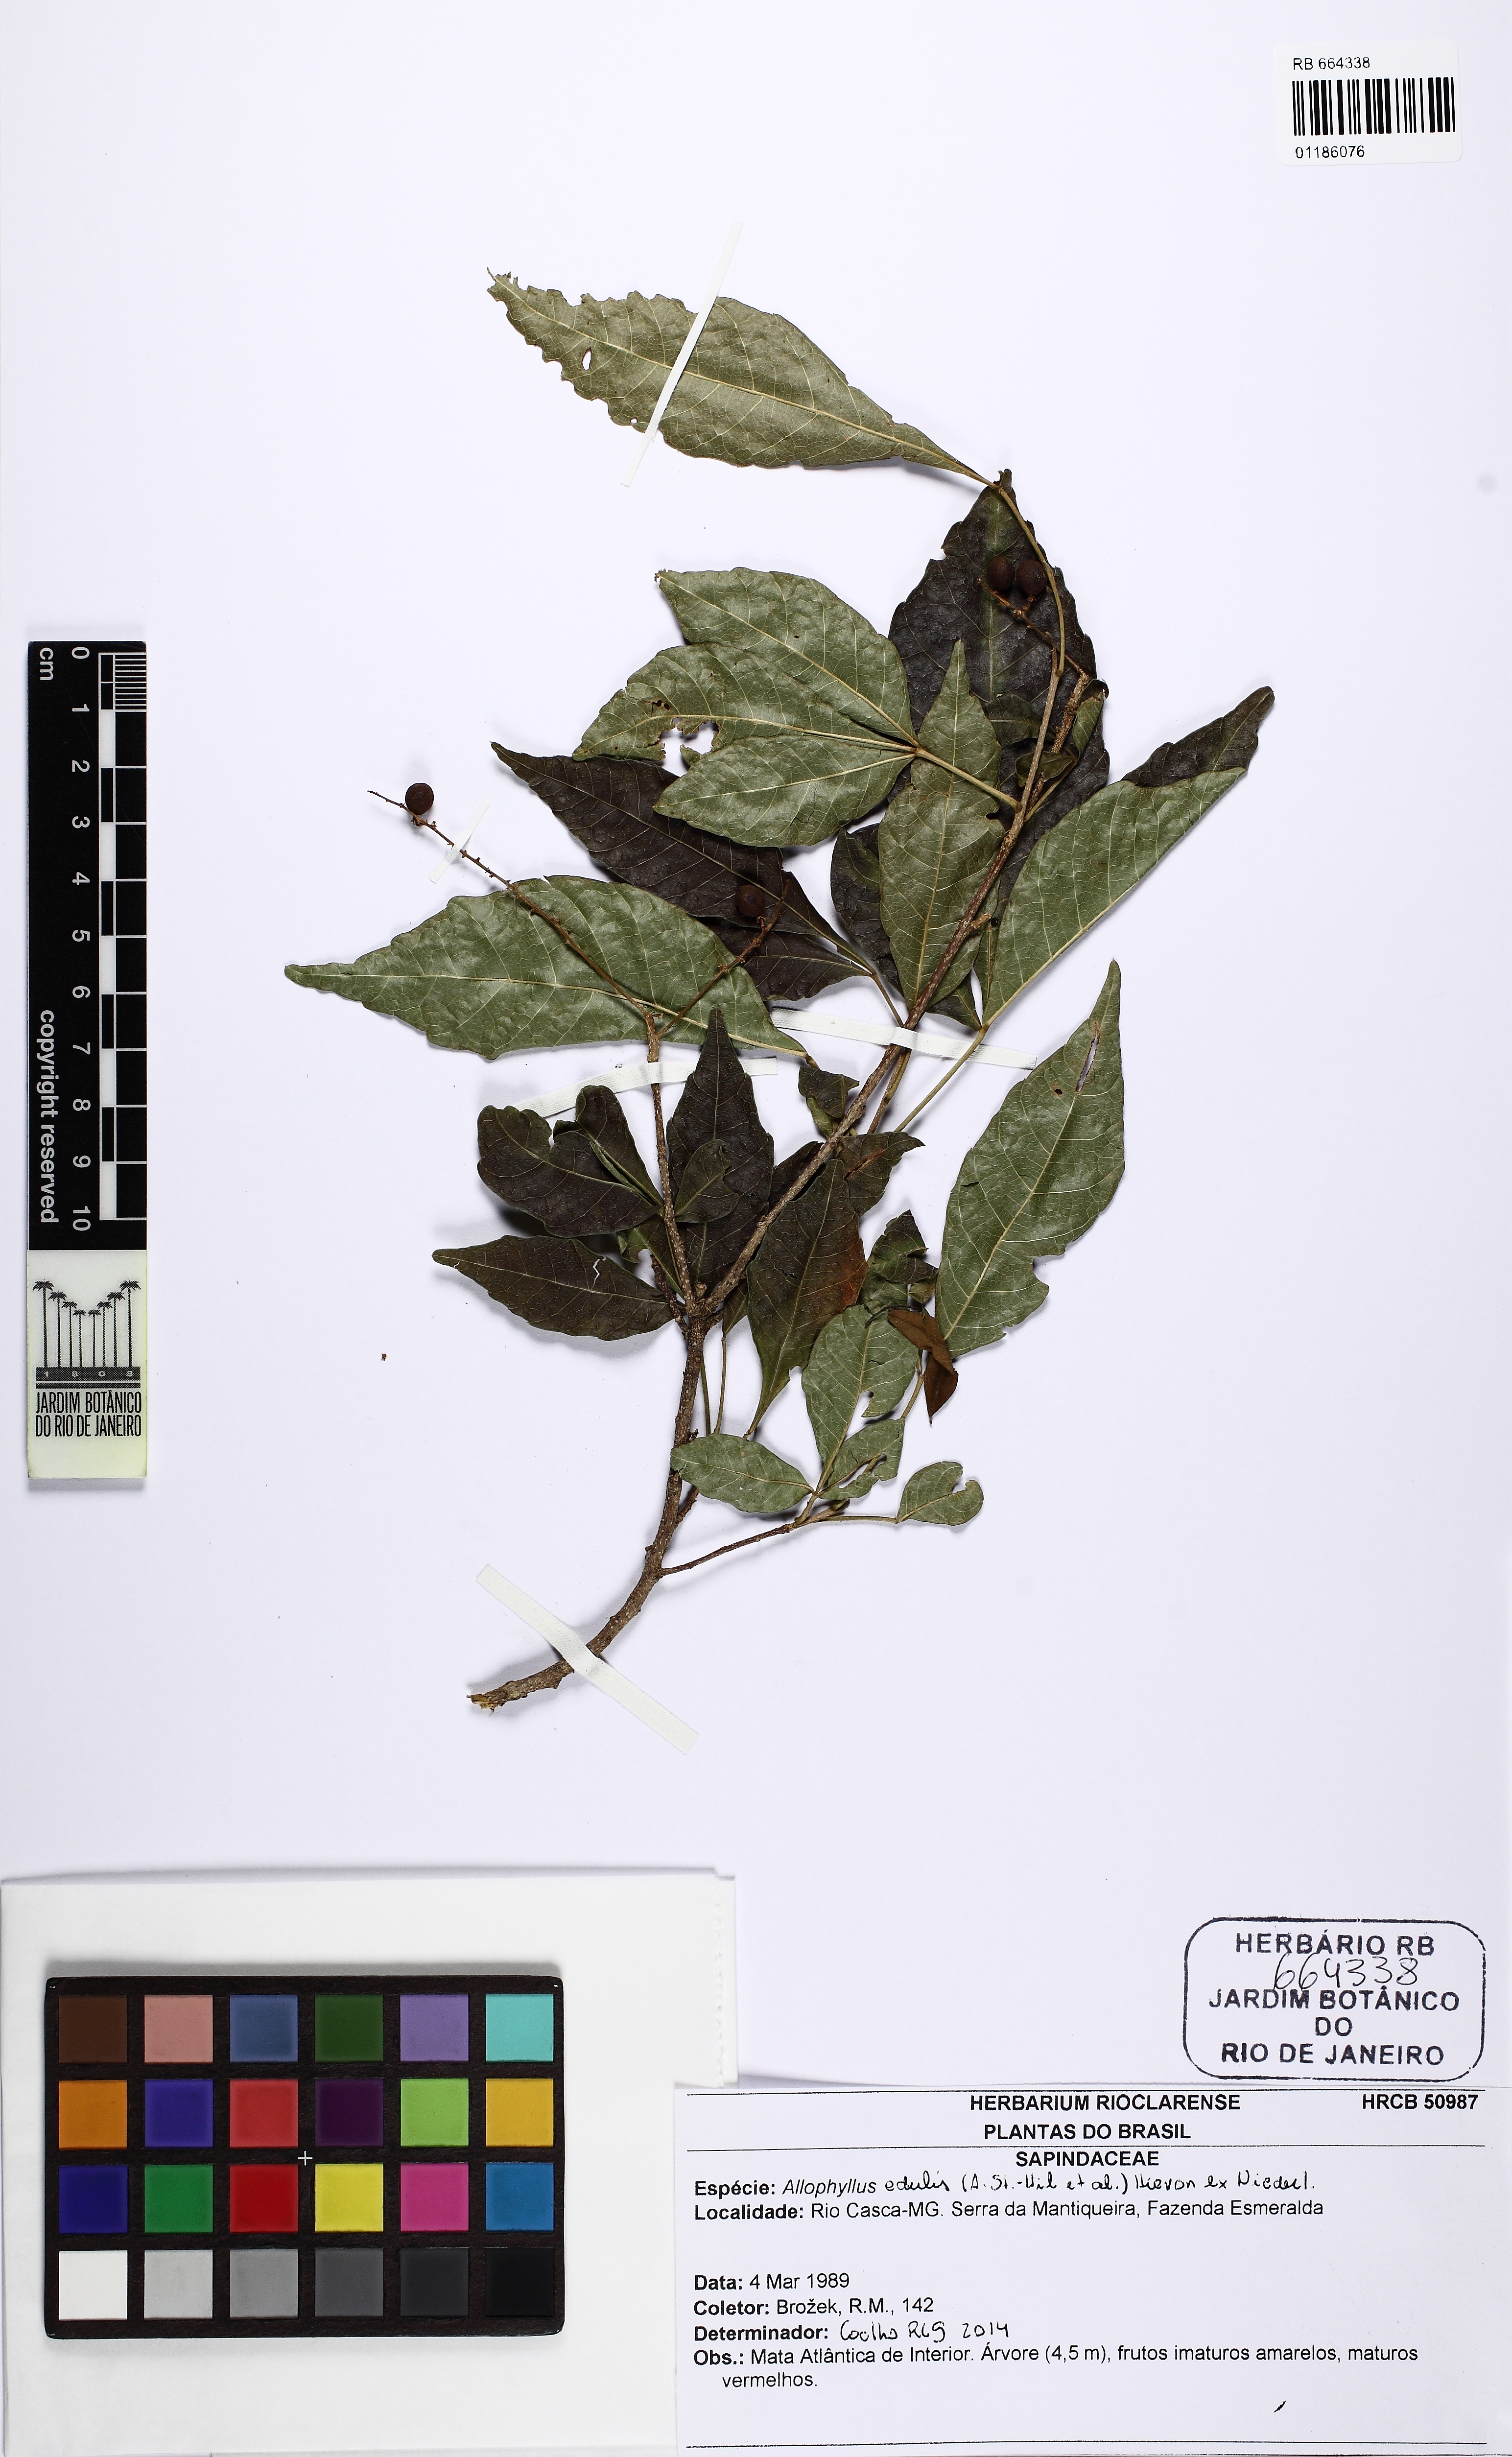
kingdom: Plantae
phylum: Tracheophyta
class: Magnoliopsida
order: Sapindales
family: Sapindaceae
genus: Allophylus
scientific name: Allophylus edulis
